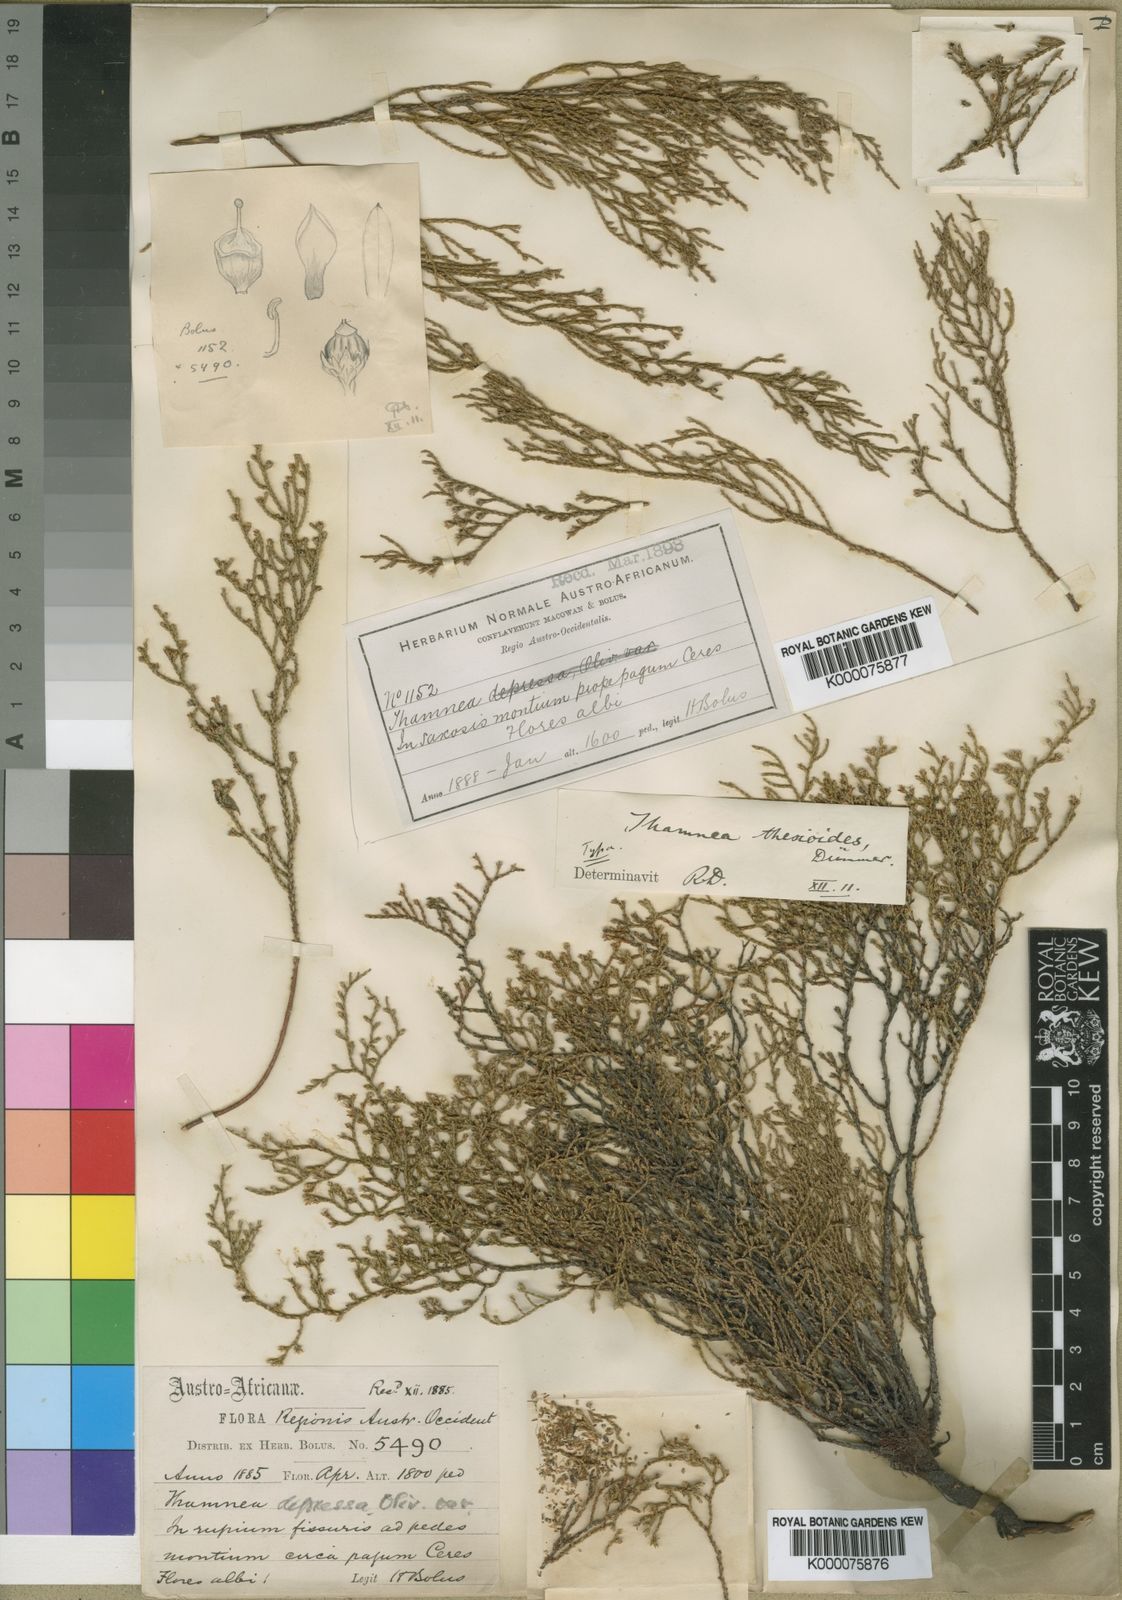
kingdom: Plantae
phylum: Tracheophyta
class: Magnoliopsida
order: Bruniales
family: Bruniaceae
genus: Thamnea
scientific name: Thamnea
